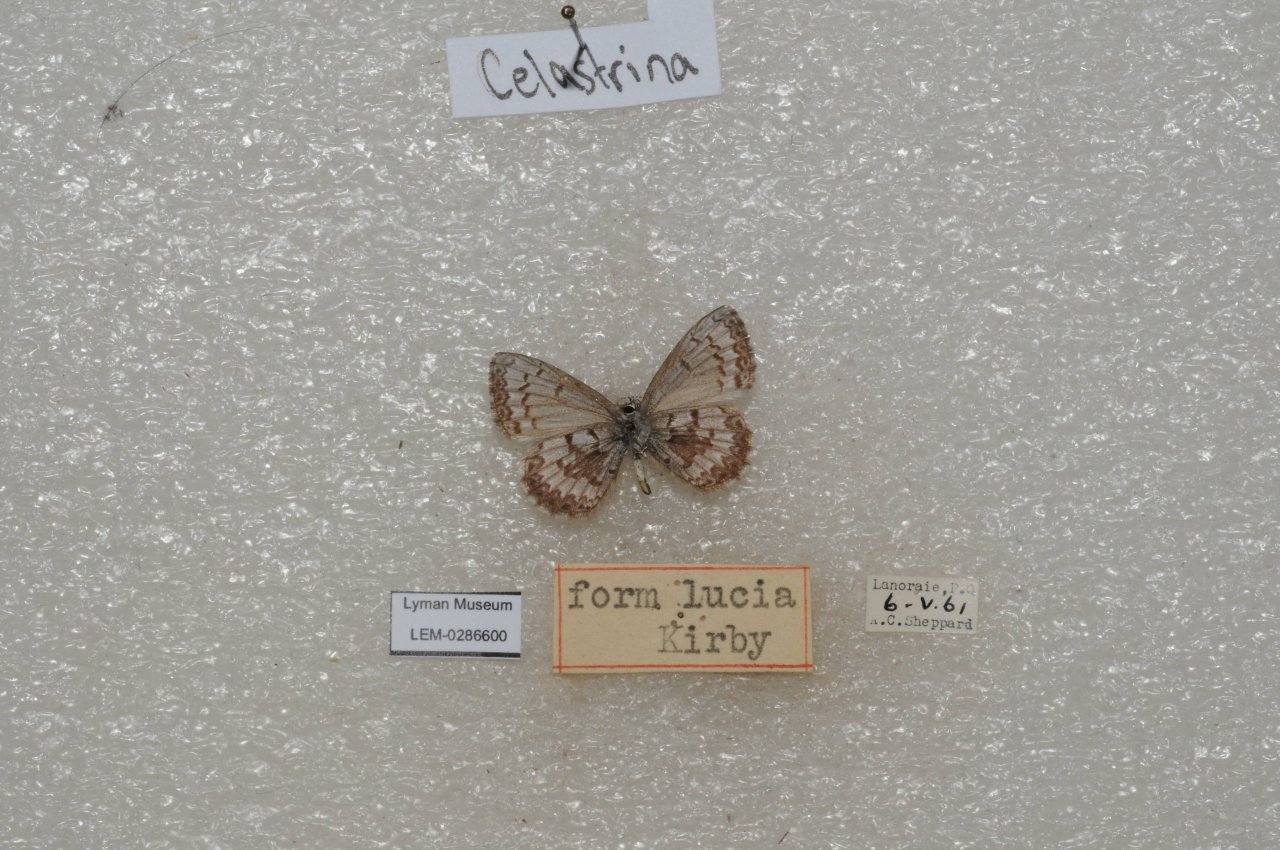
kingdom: Animalia
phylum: Arthropoda
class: Insecta
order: Lepidoptera
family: Lycaenidae
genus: Celastrina
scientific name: Celastrina lucia
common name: Northern Spring Azure
